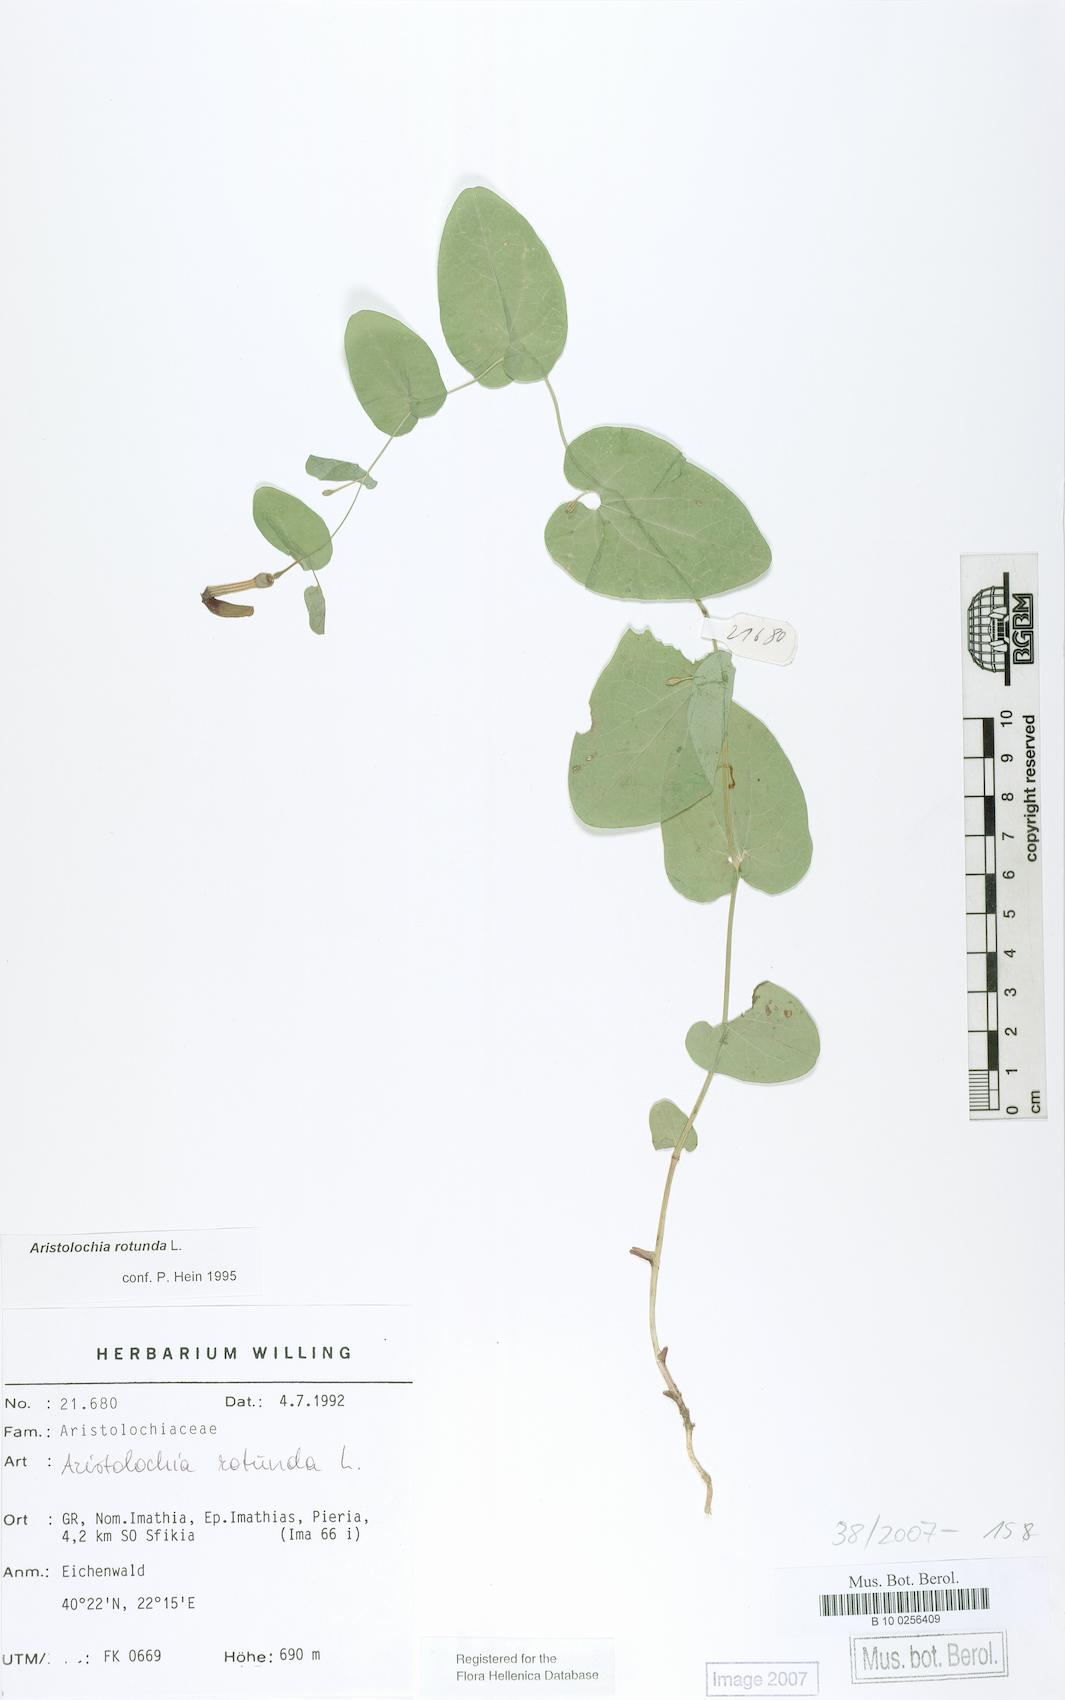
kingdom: Plantae
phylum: Tracheophyta
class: Magnoliopsida
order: Piperales
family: Aristolochiaceae
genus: Aristolochia
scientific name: Aristolochia rotunda
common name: Smearwort
